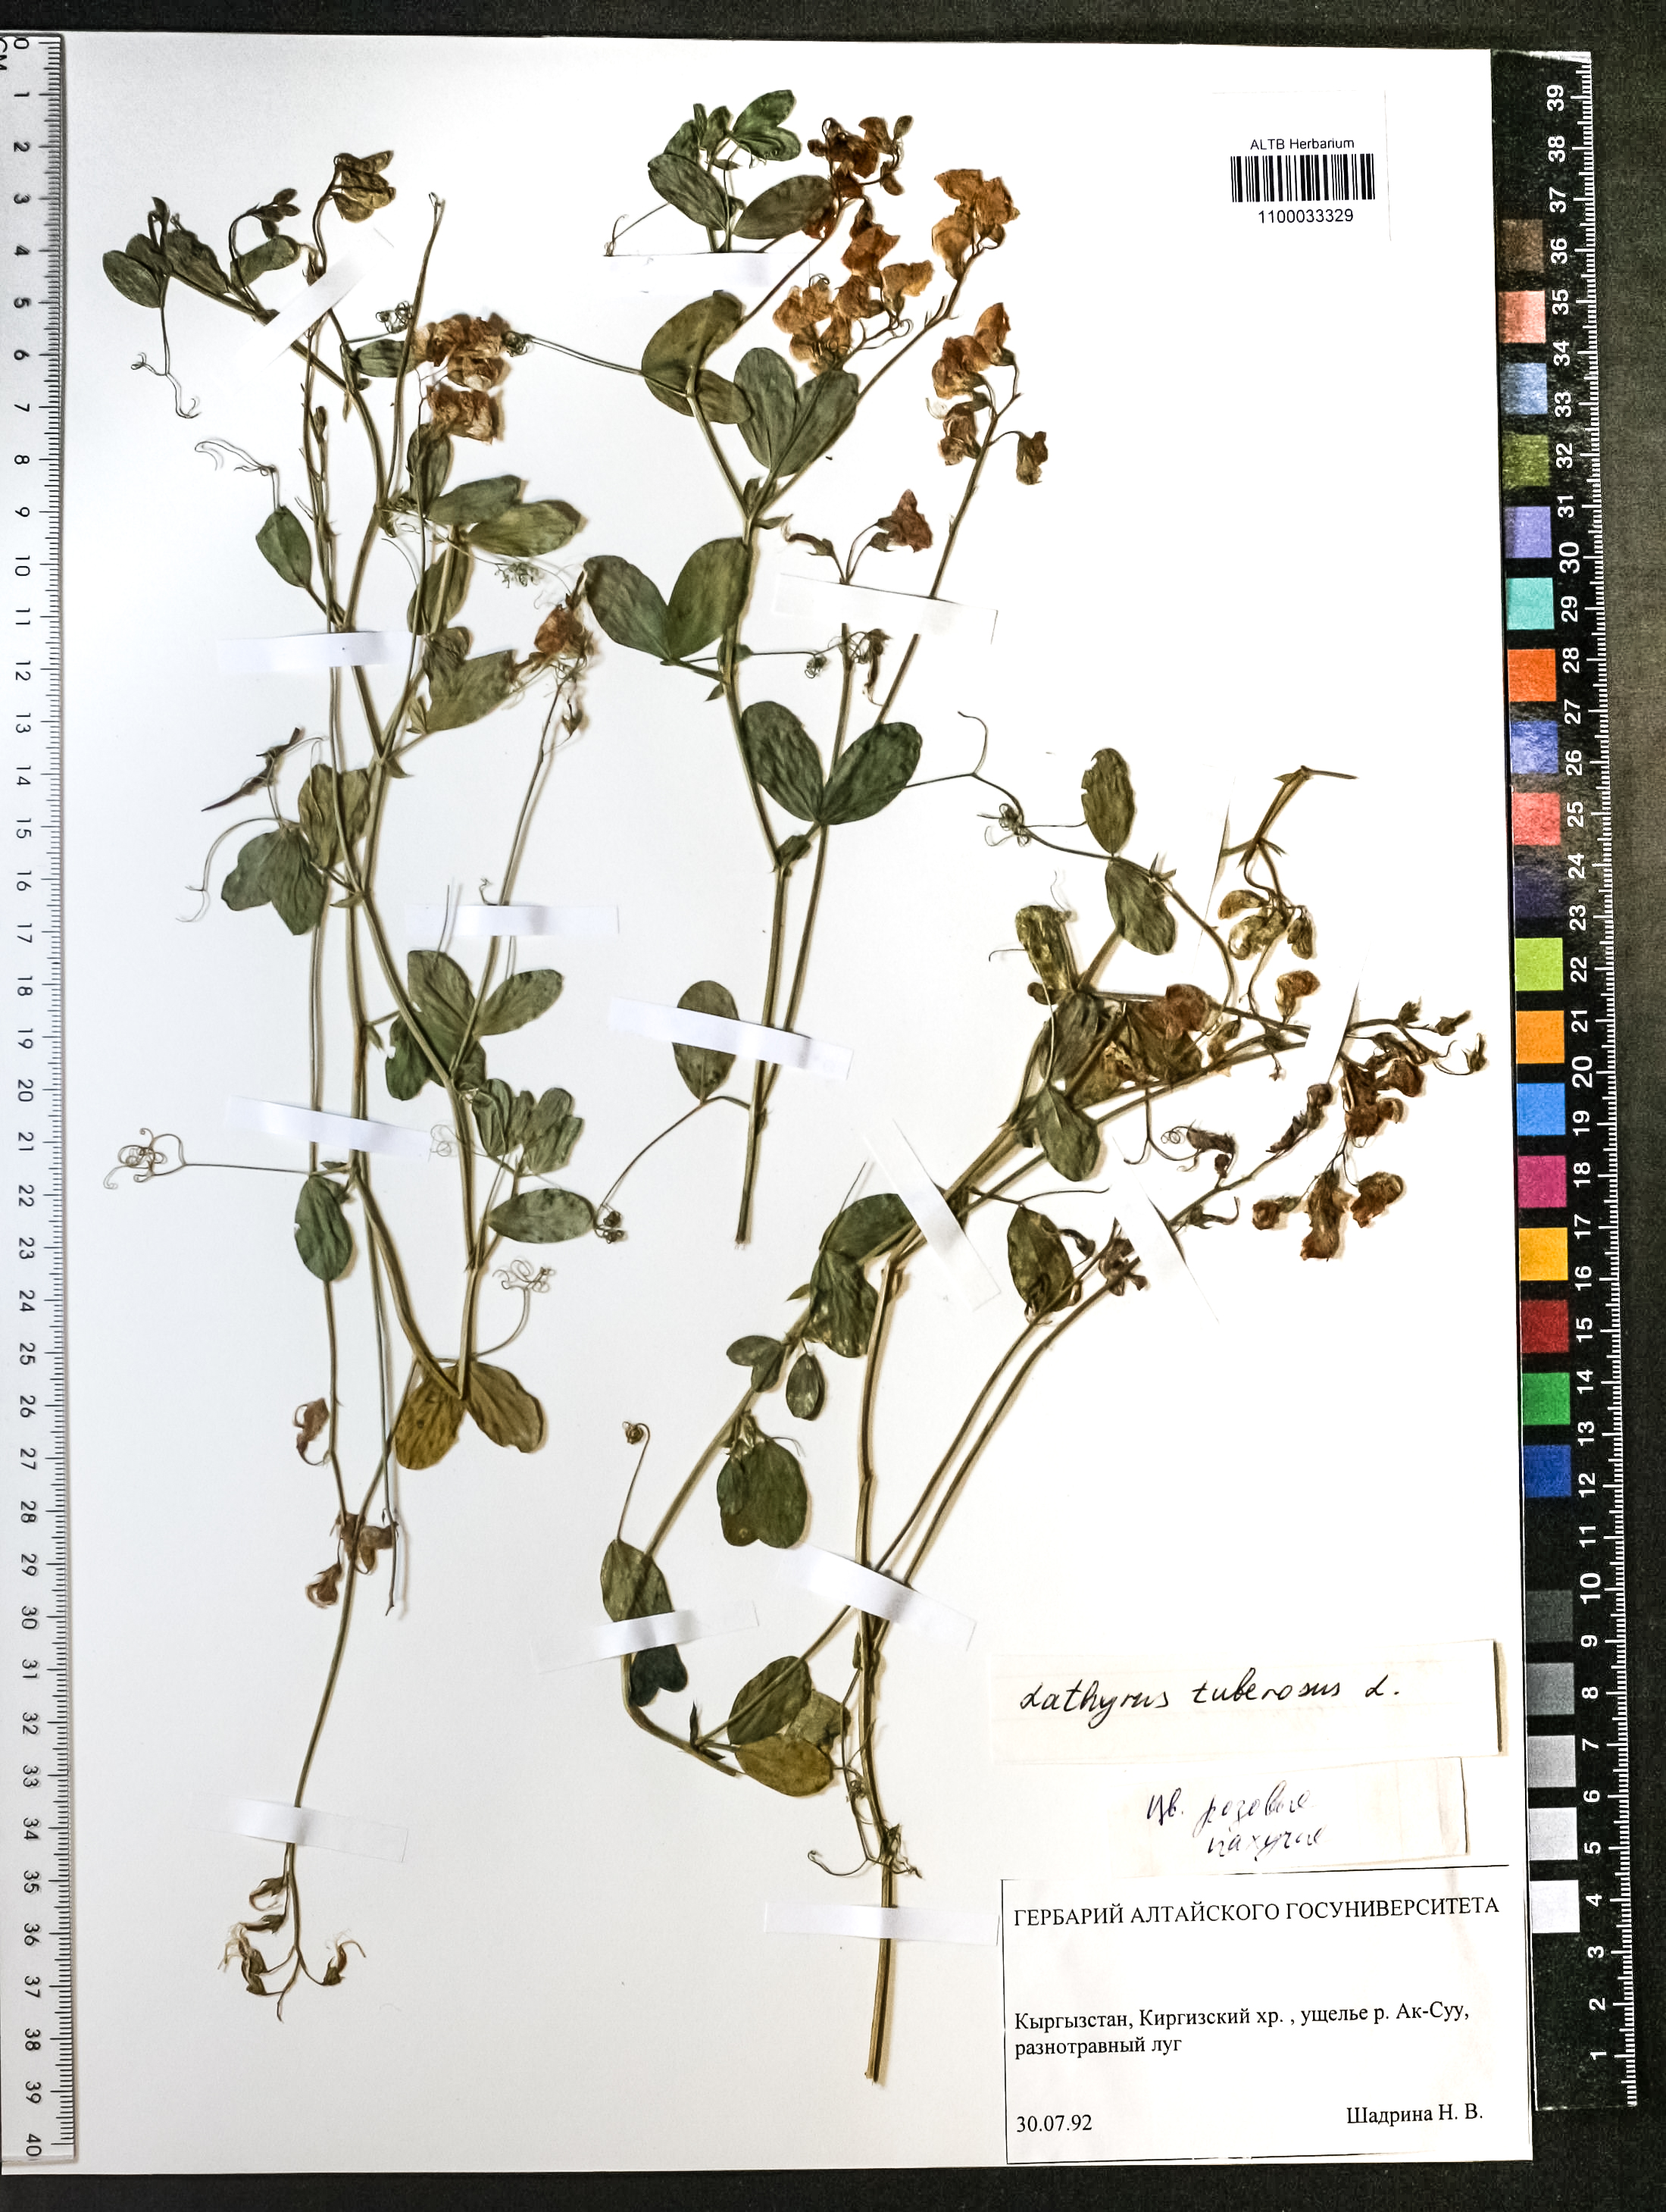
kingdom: Plantae
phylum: Tracheophyta
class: Magnoliopsida
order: Fabales
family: Fabaceae
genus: Lathyrus
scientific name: Lathyrus tuberosus
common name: Tuberous pea
